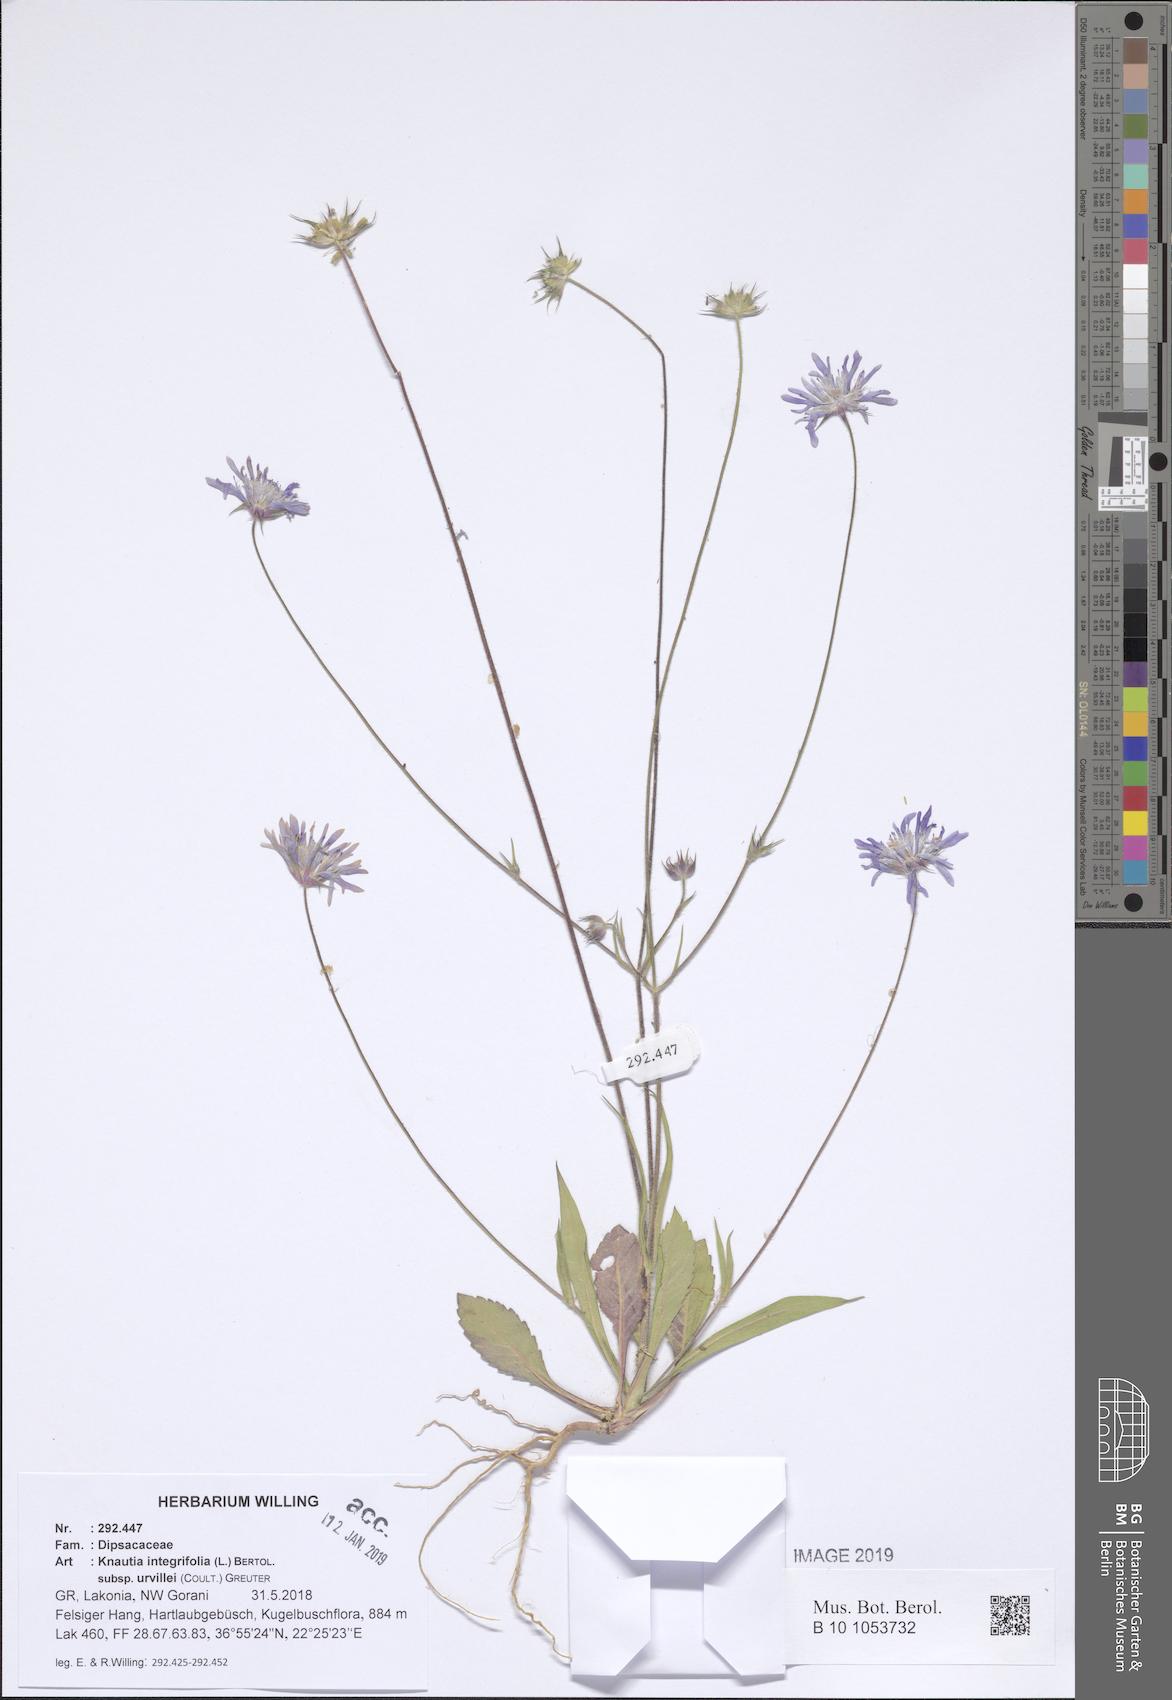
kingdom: Plantae
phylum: Tracheophyta
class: Magnoliopsida
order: Dipsacales
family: Caprifoliaceae
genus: Knautia
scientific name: Knautia integrifolia
